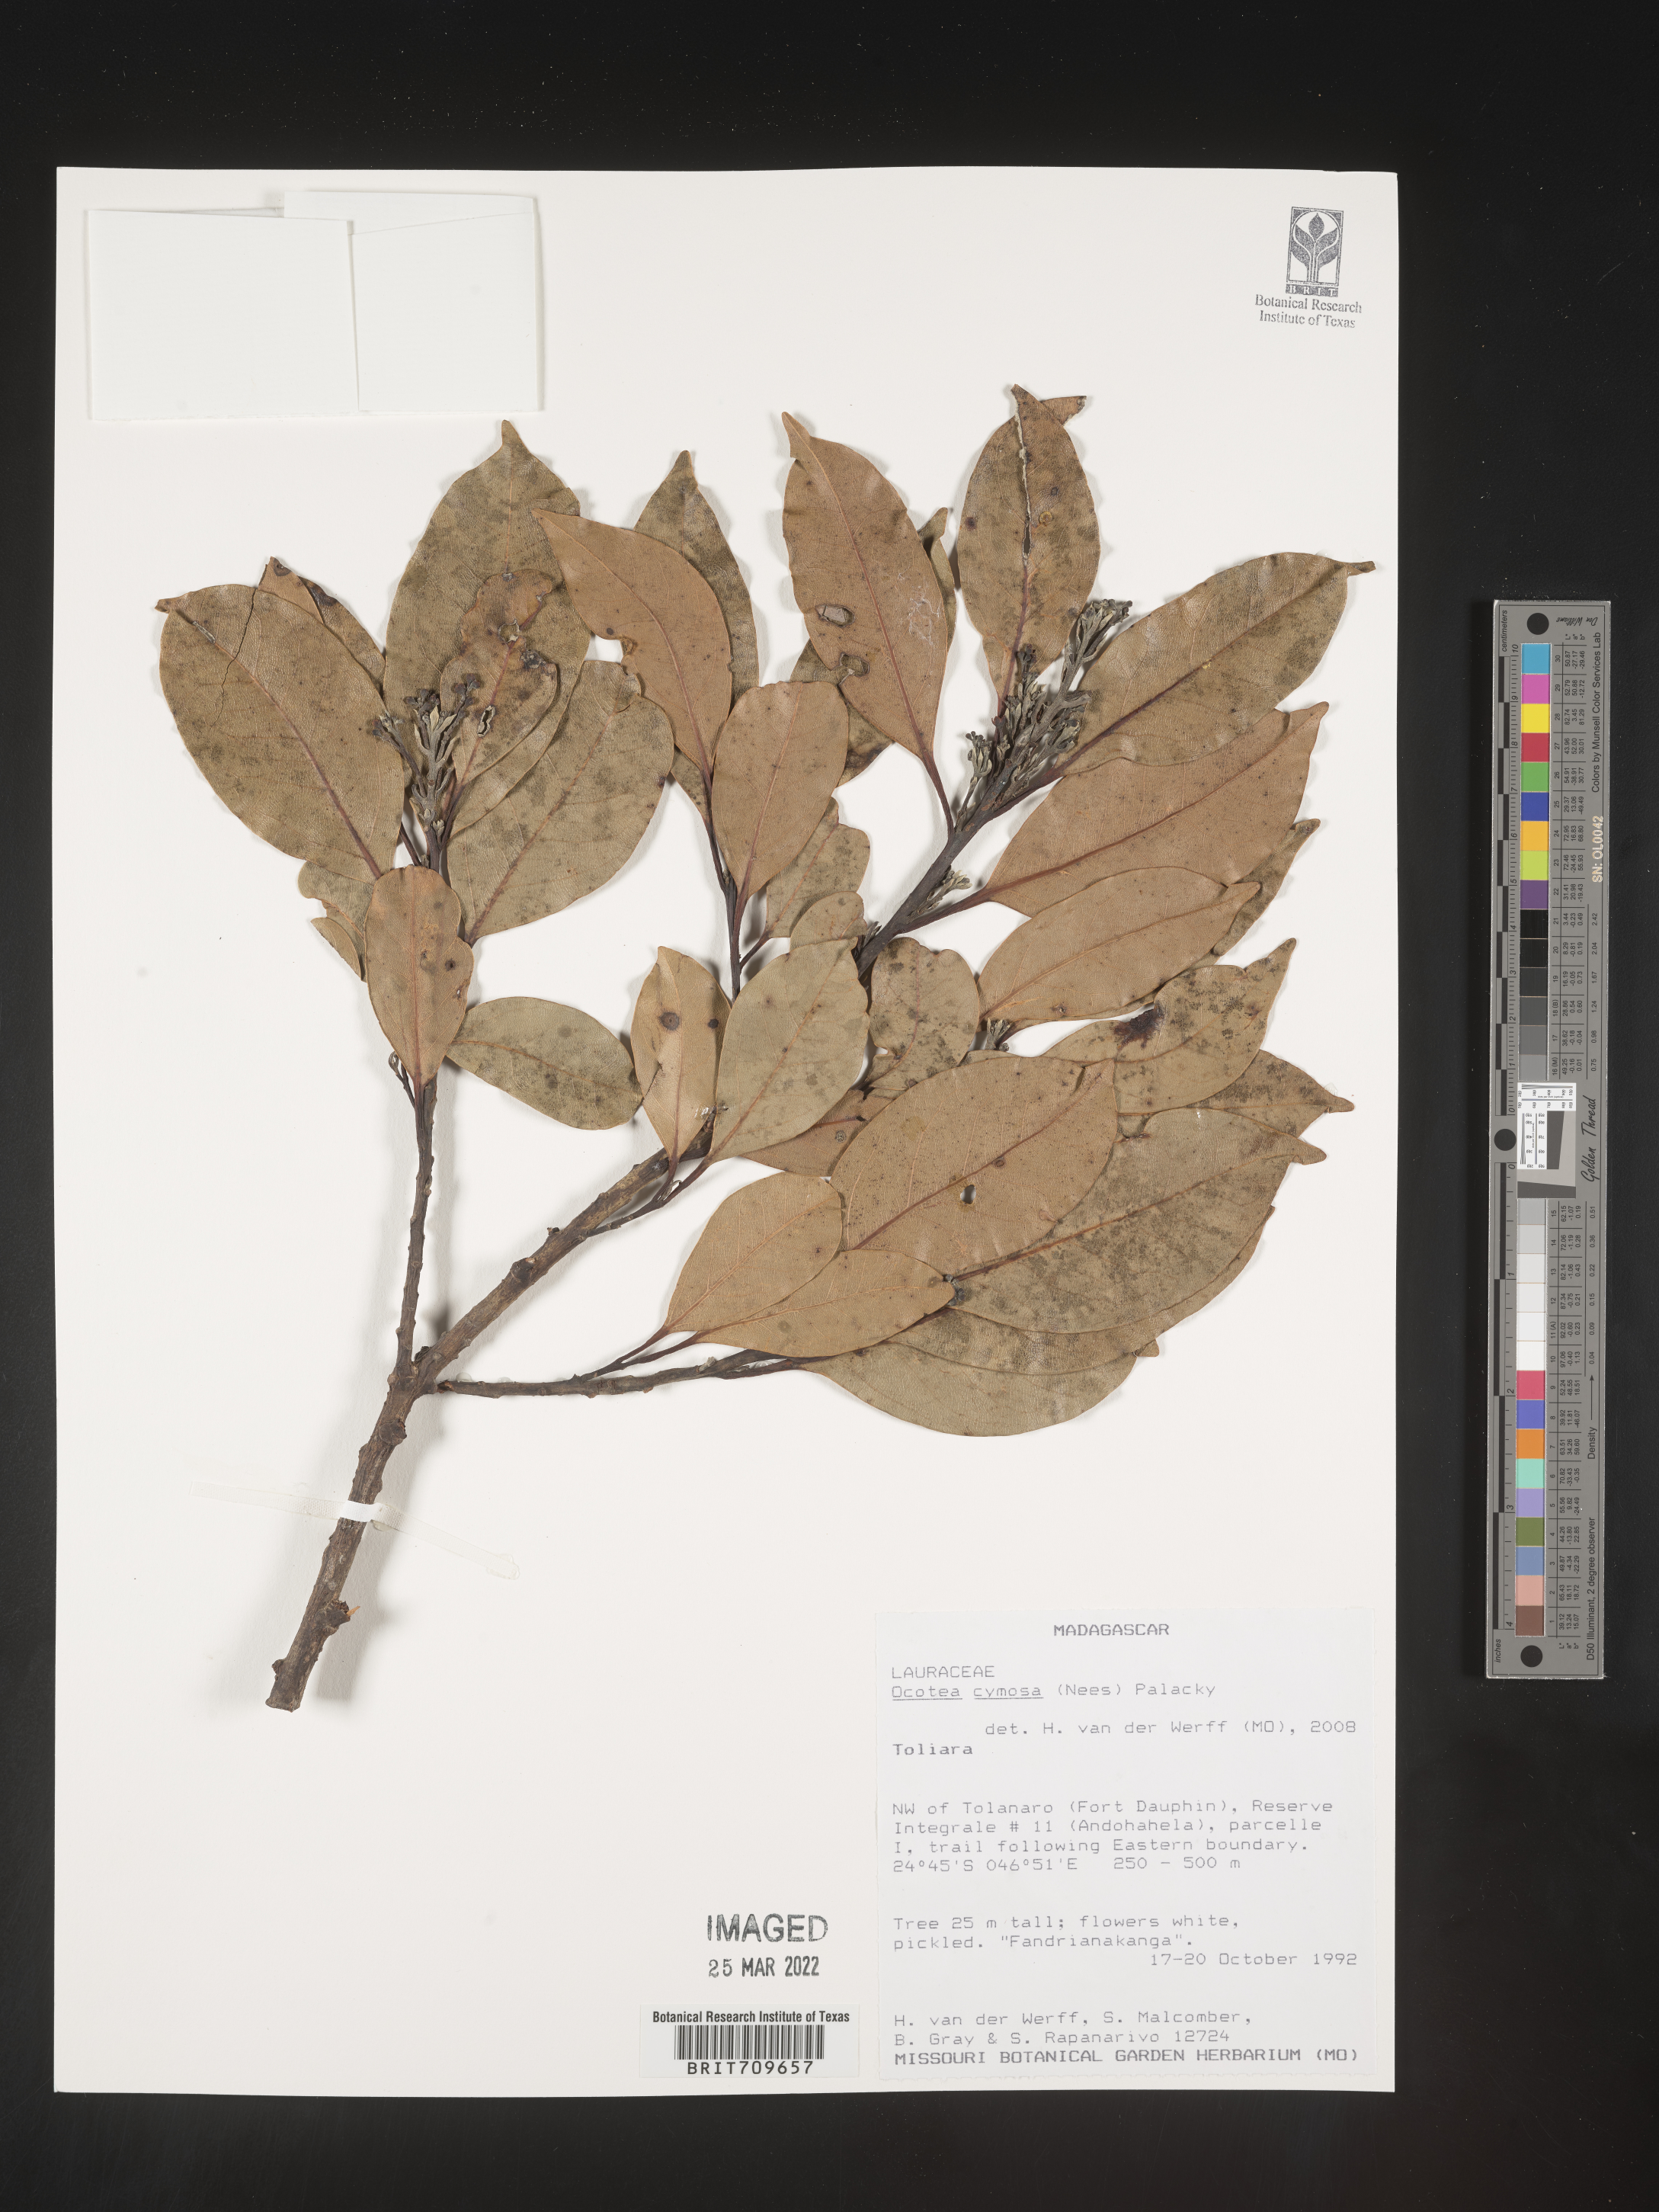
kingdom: Plantae
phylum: Tracheophyta
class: Magnoliopsida
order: Laurales
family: Lauraceae
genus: Ocotea
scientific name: Ocotea
